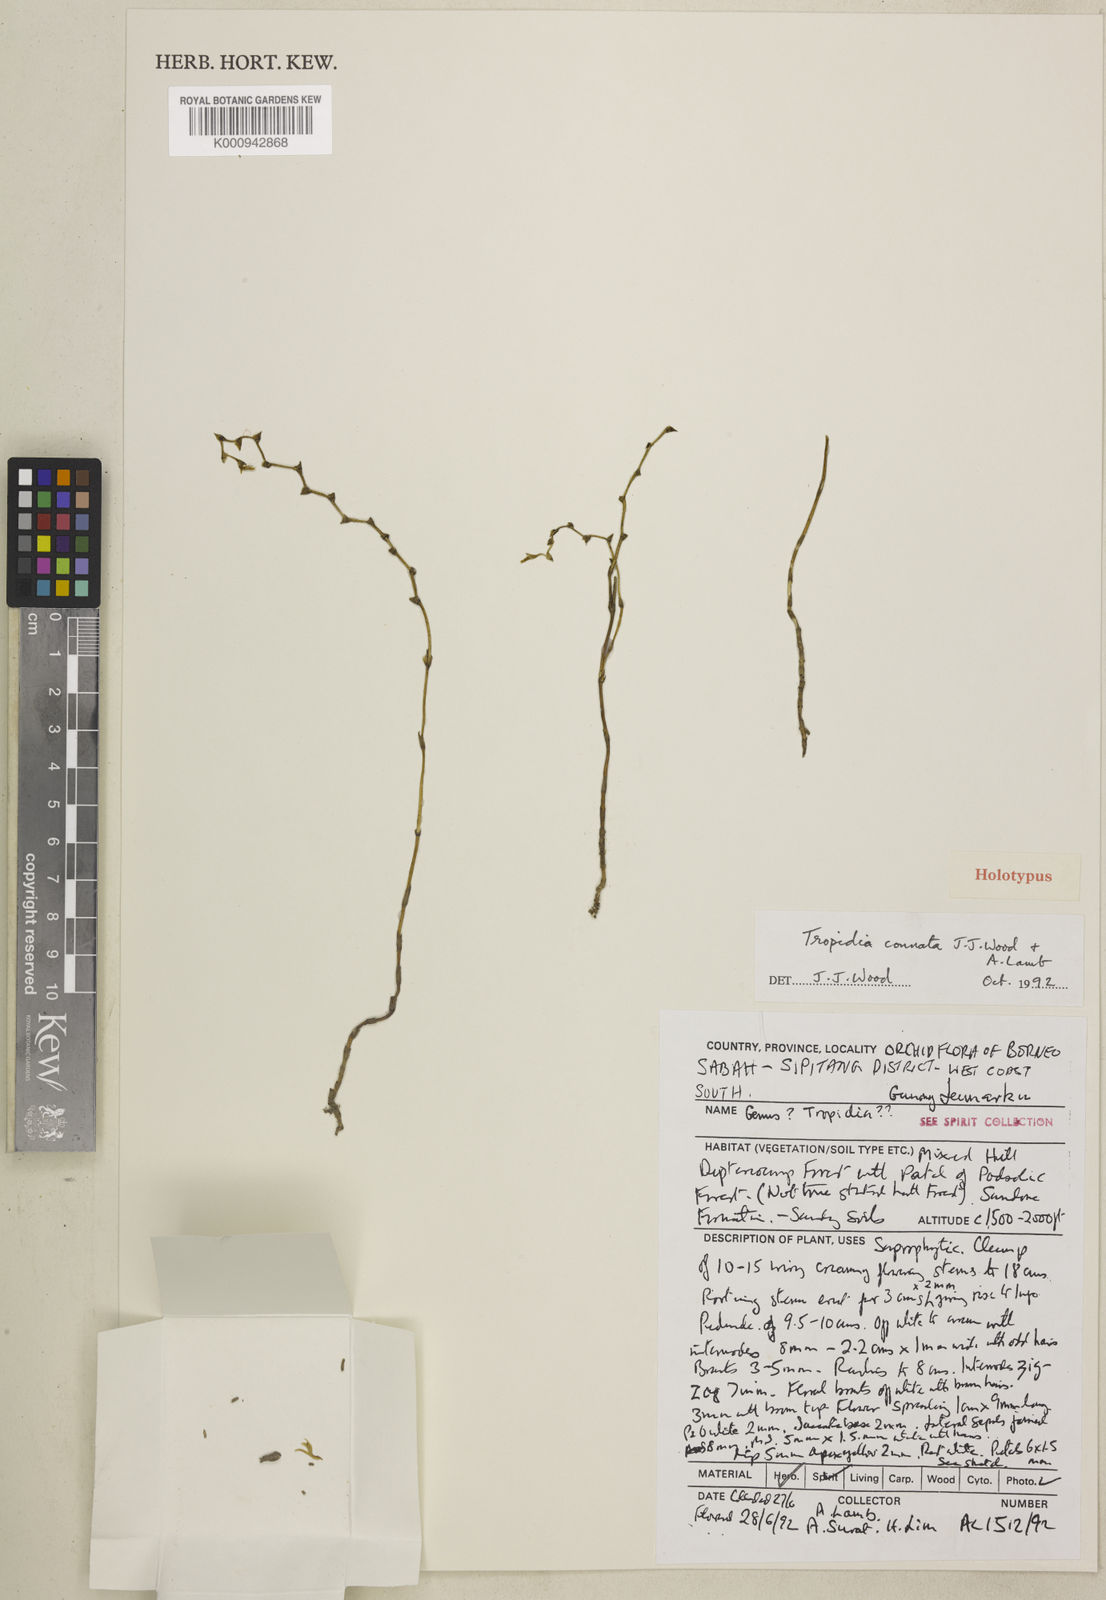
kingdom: Plantae
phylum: Tracheophyta
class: Liliopsida
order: Asparagales
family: Orchidaceae
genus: Tropidia
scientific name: Tropidia connata
